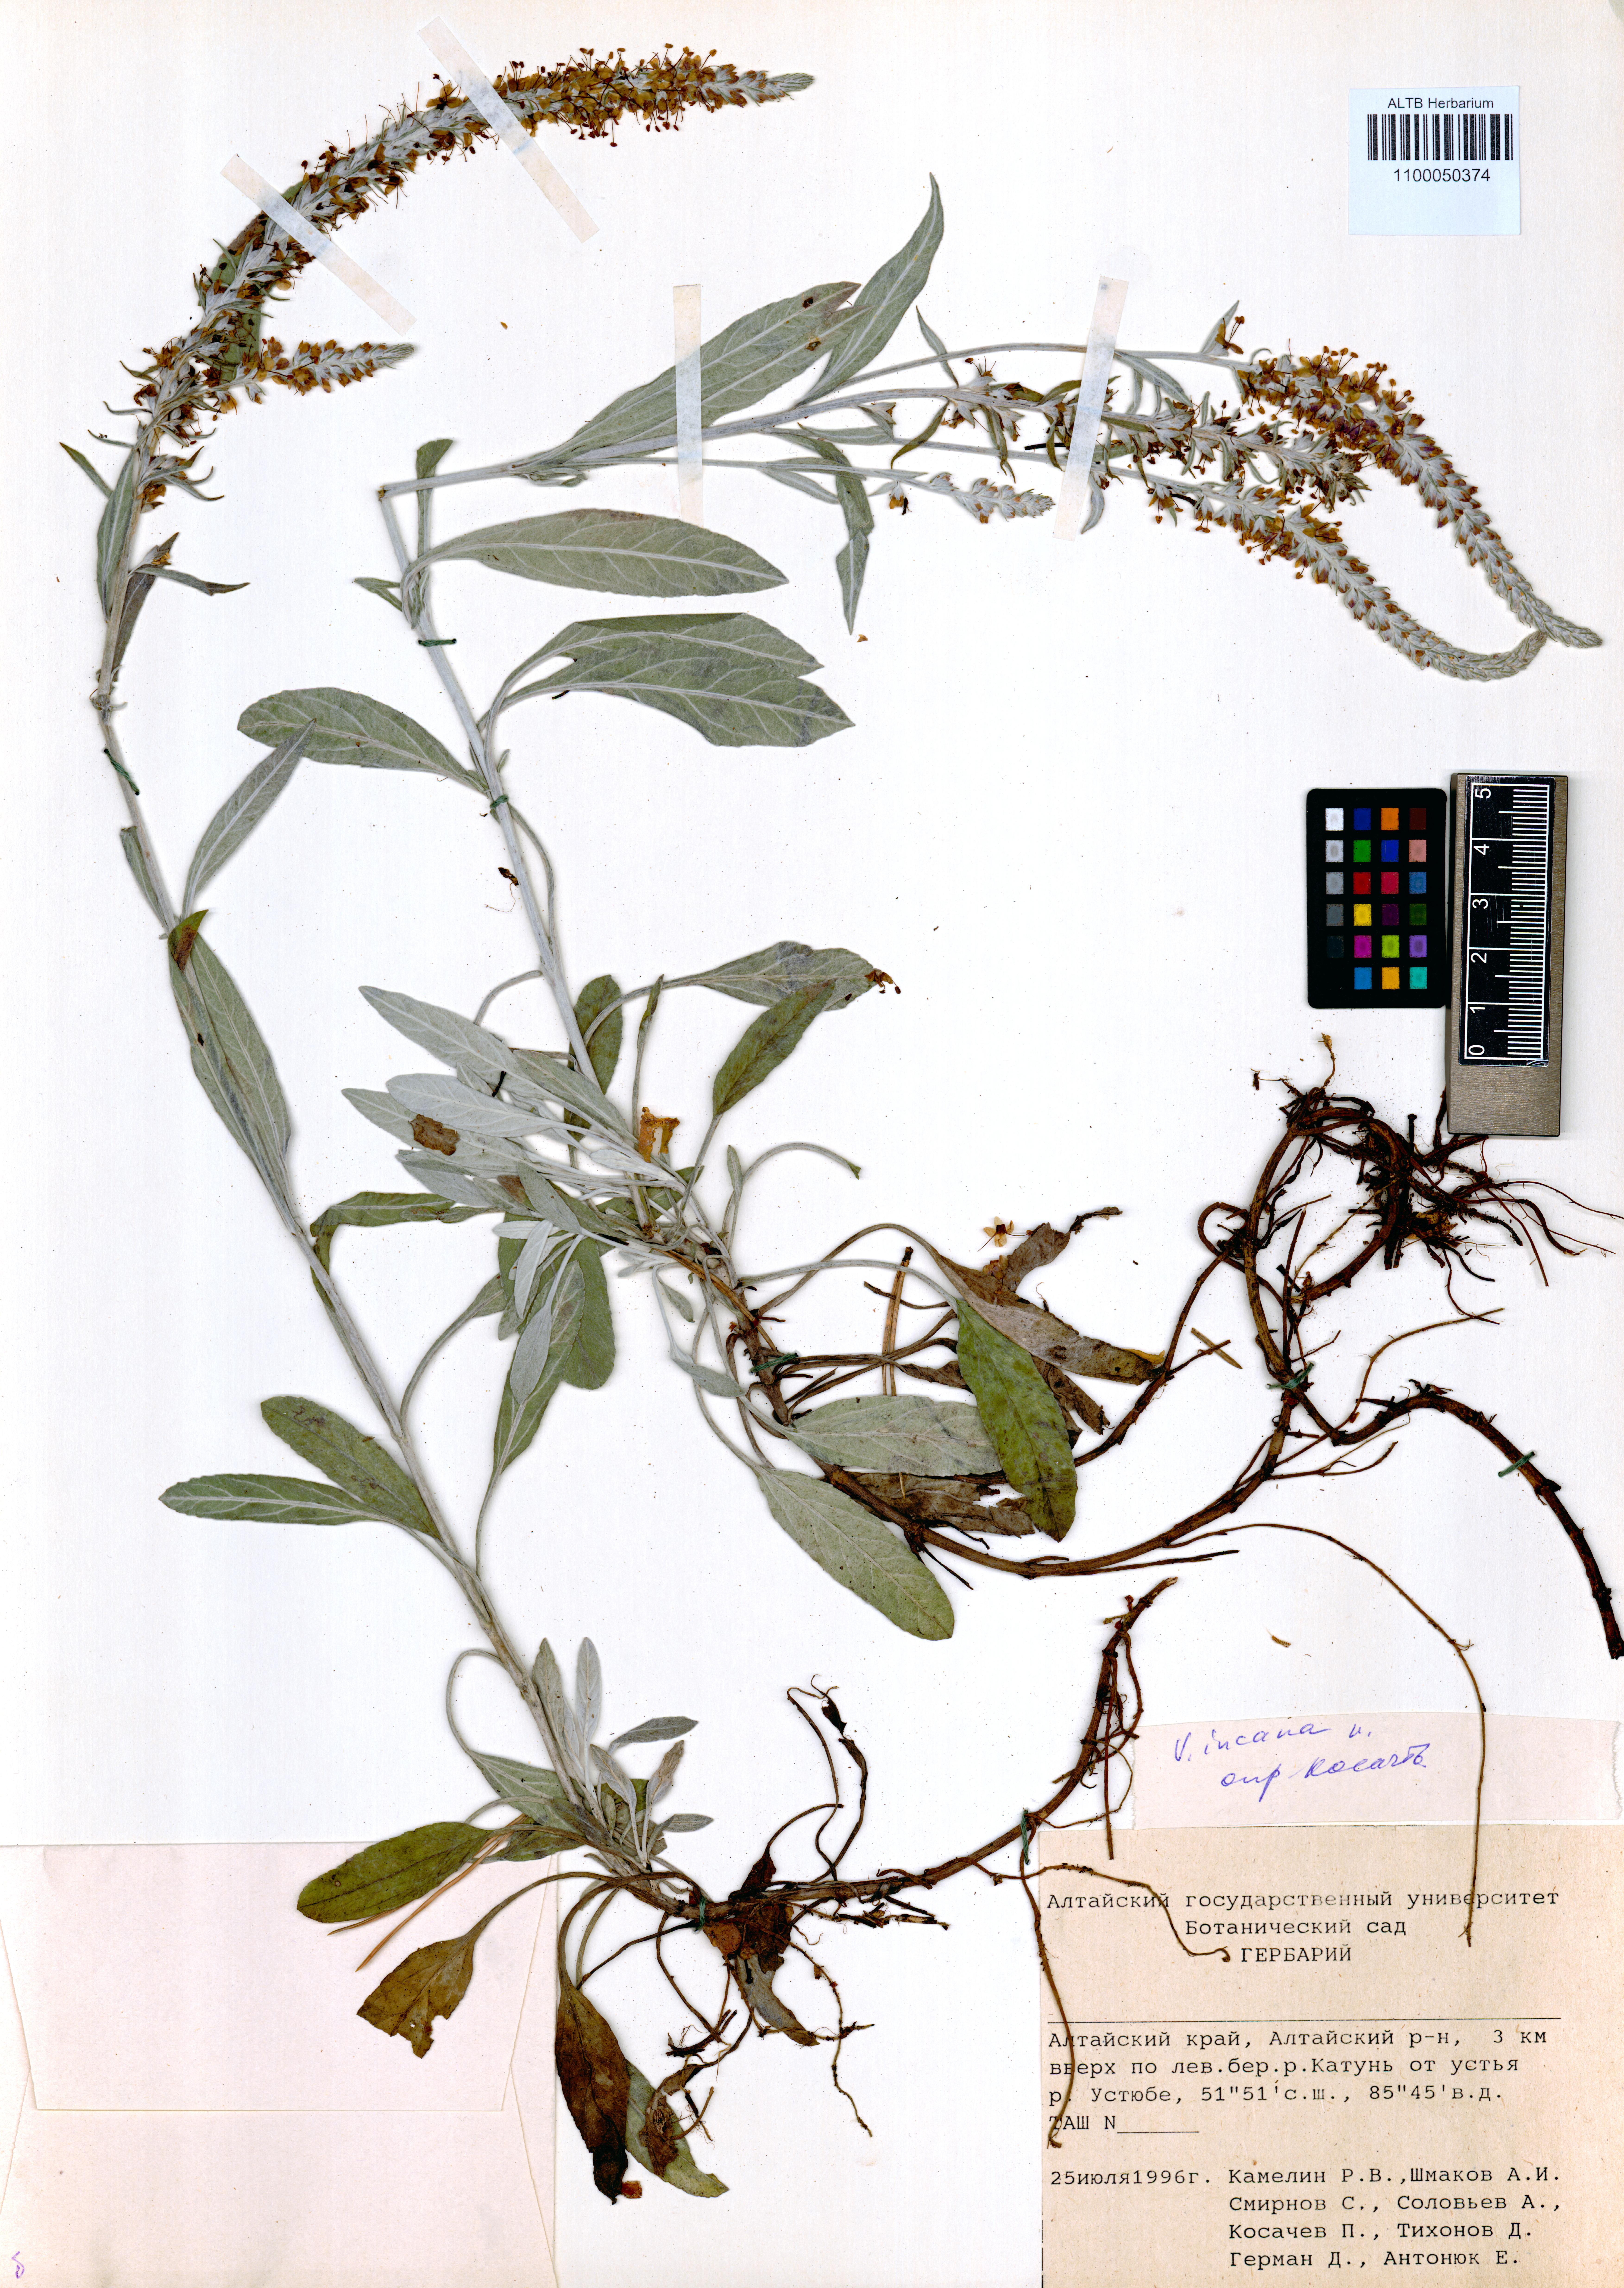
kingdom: Plantae
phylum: Tracheophyta
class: Magnoliopsida
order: Lamiales
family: Plantaginaceae
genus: Veronica
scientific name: Veronica incana
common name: Silver speedwell
